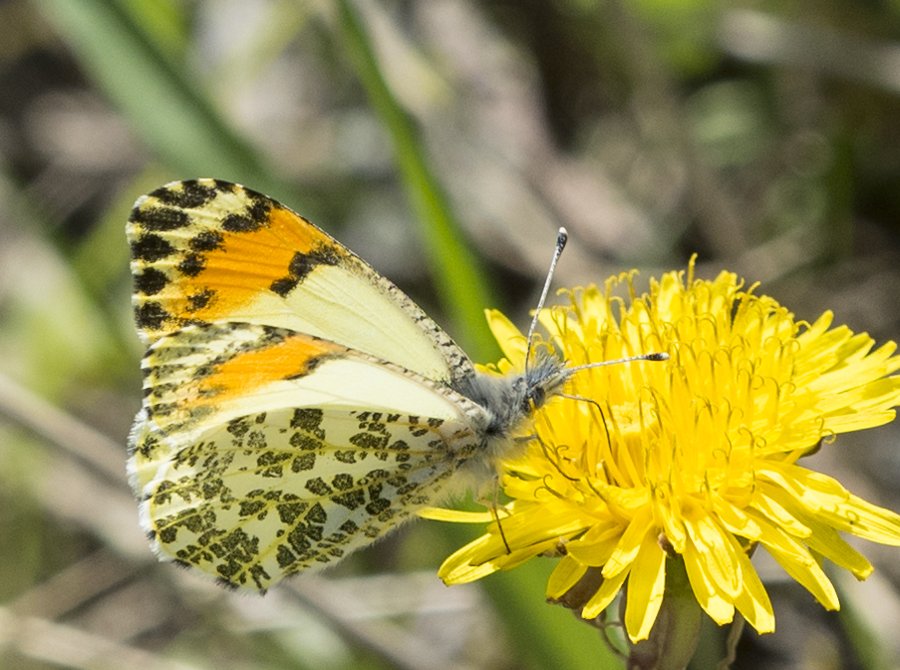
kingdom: Animalia
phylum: Arthropoda
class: Insecta
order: Lepidoptera
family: Pieridae
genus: Anthocharis
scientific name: Anthocharis sara
